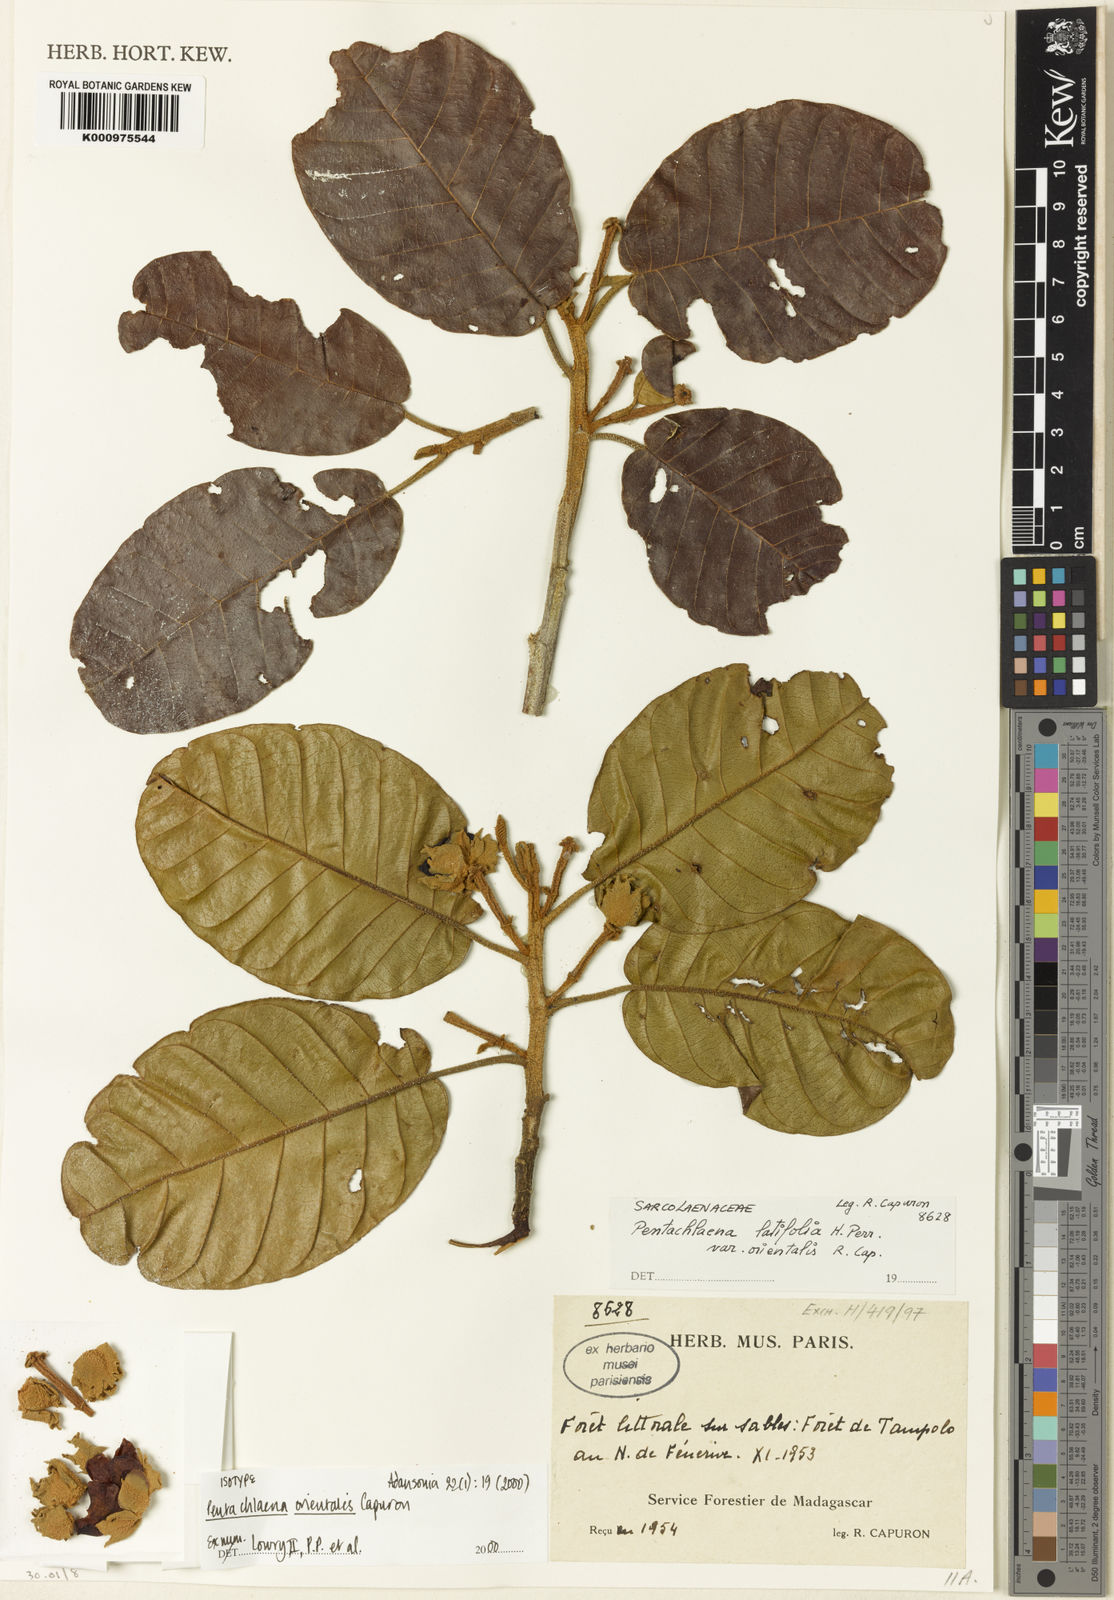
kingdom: Plantae
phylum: Tracheophyta
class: Magnoliopsida
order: Malvales
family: Sarcolaenaceae
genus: Pentachlaena
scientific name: Pentachlaena orientalis
